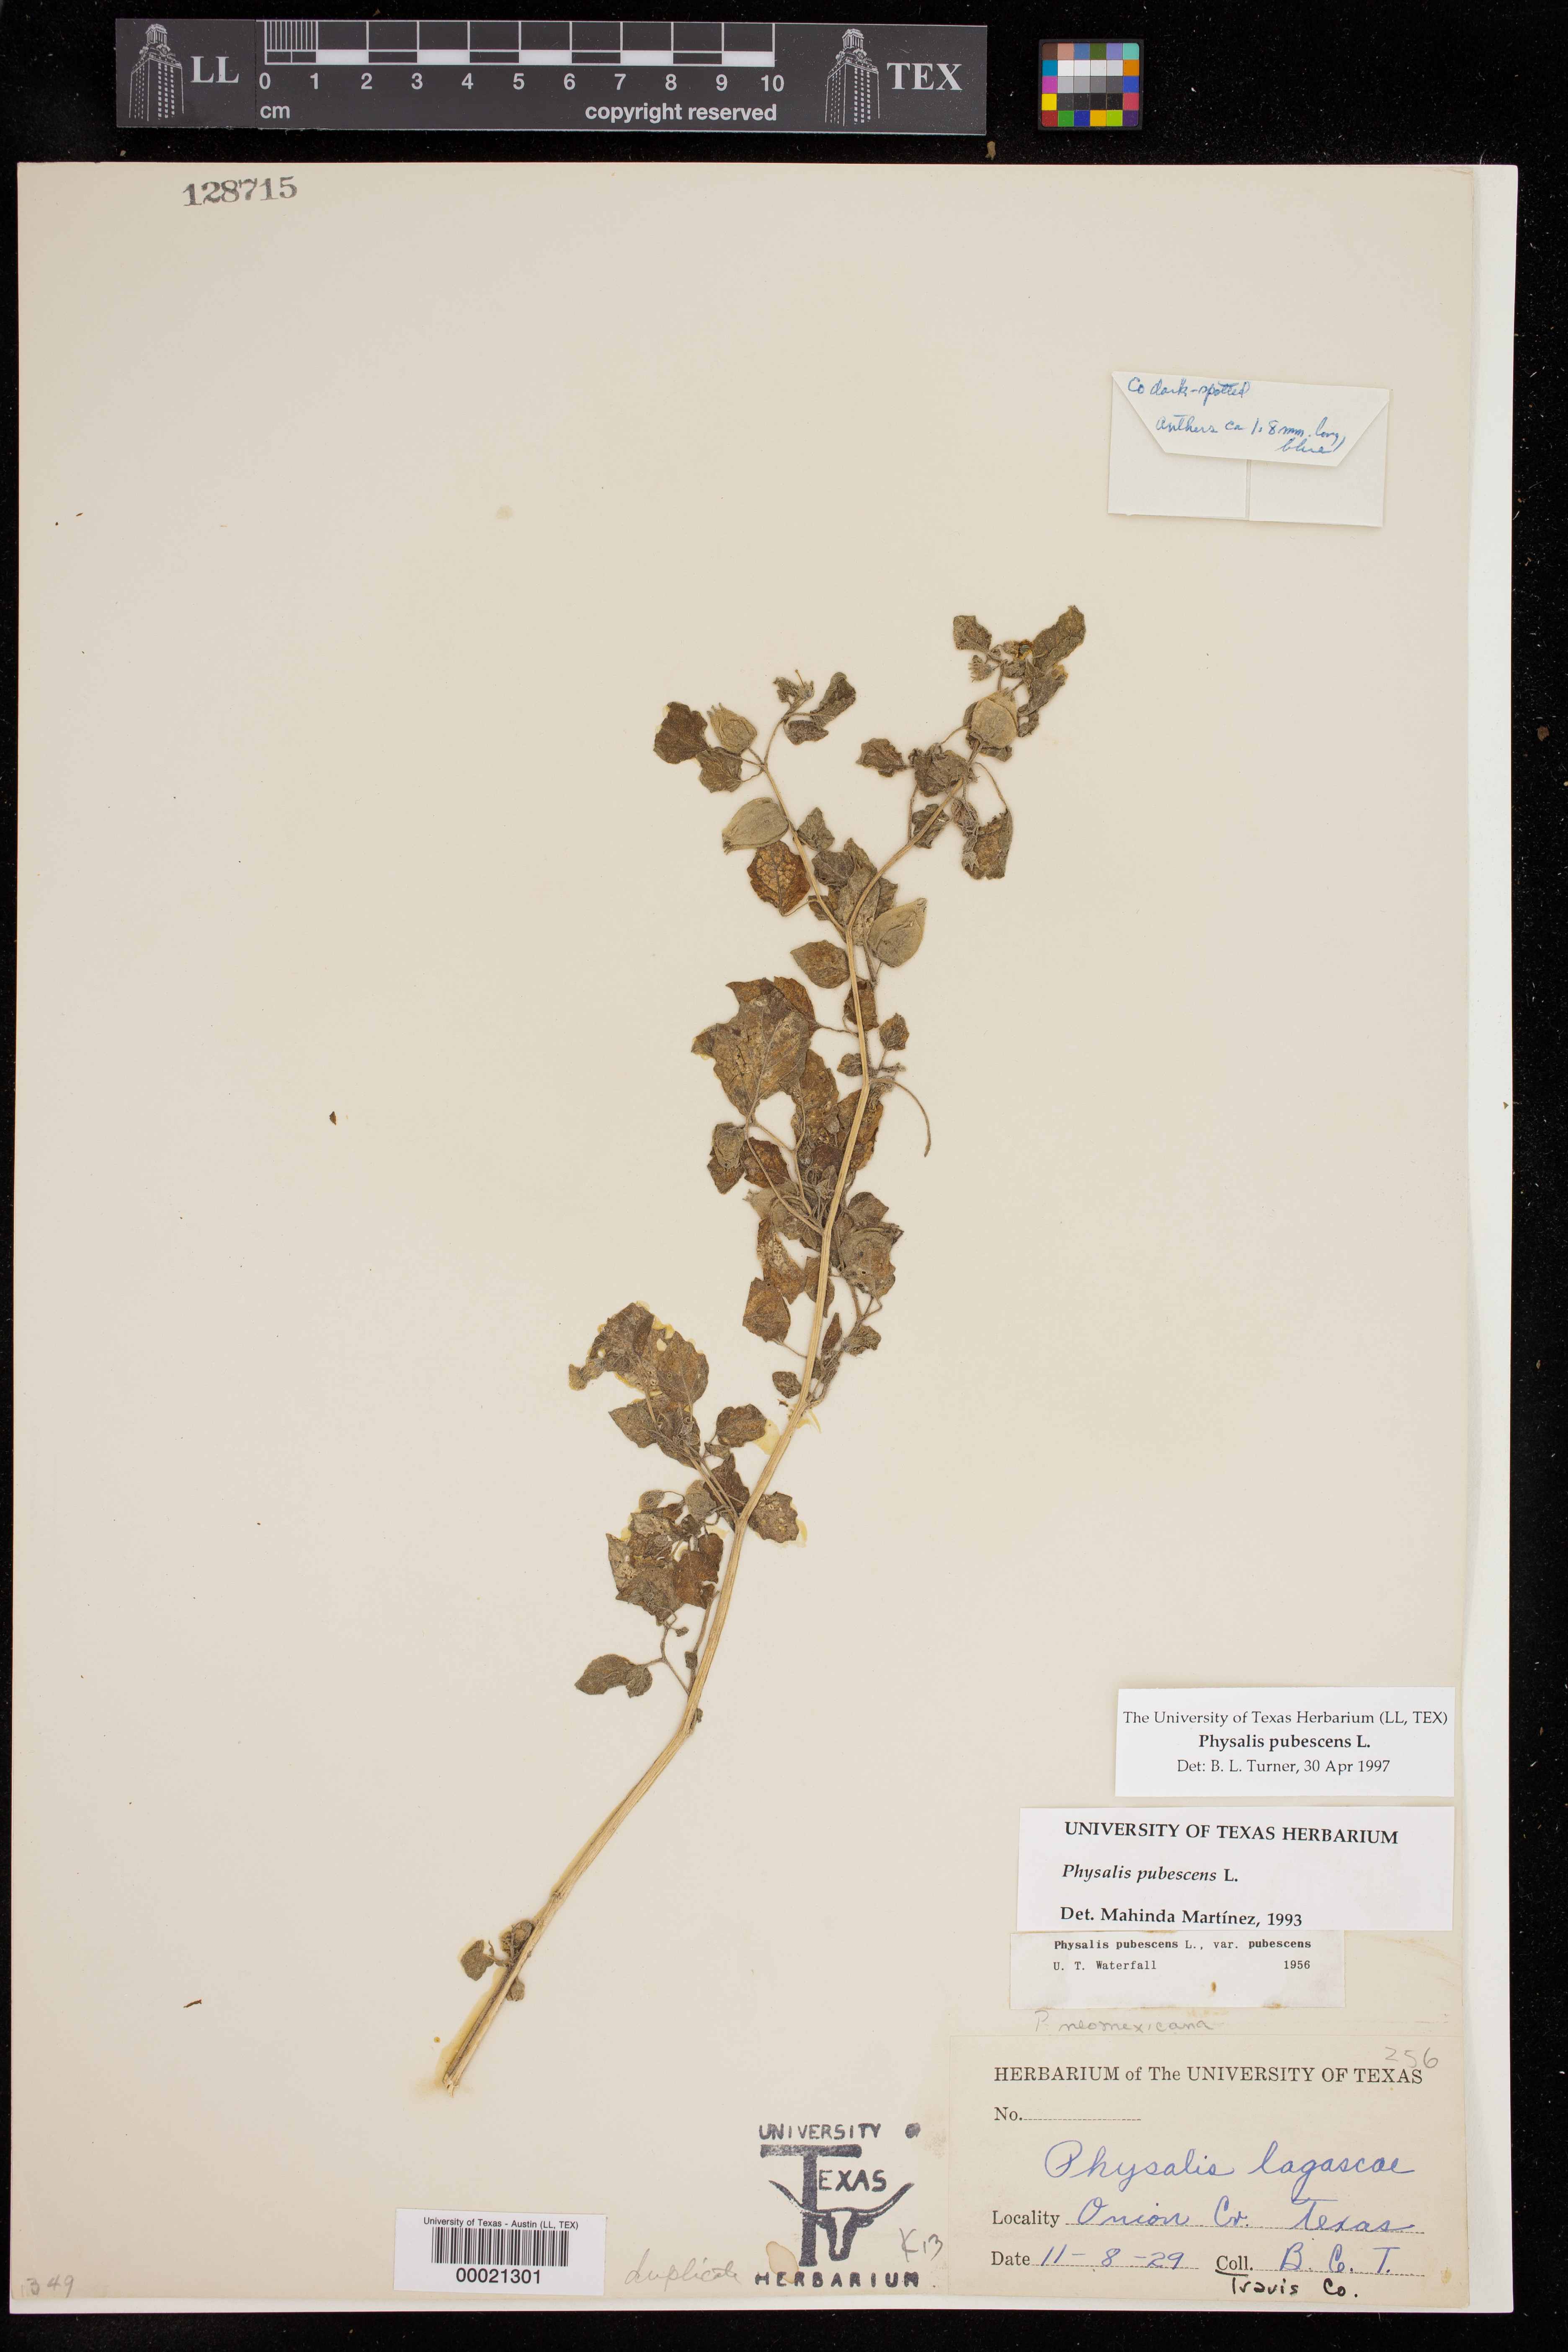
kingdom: Plantae
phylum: Tracheophyta
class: Magnoliopsida
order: Solanales
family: Solanaceae
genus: Physalis
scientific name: Physalis pubescens
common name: Downy ground-cherry
